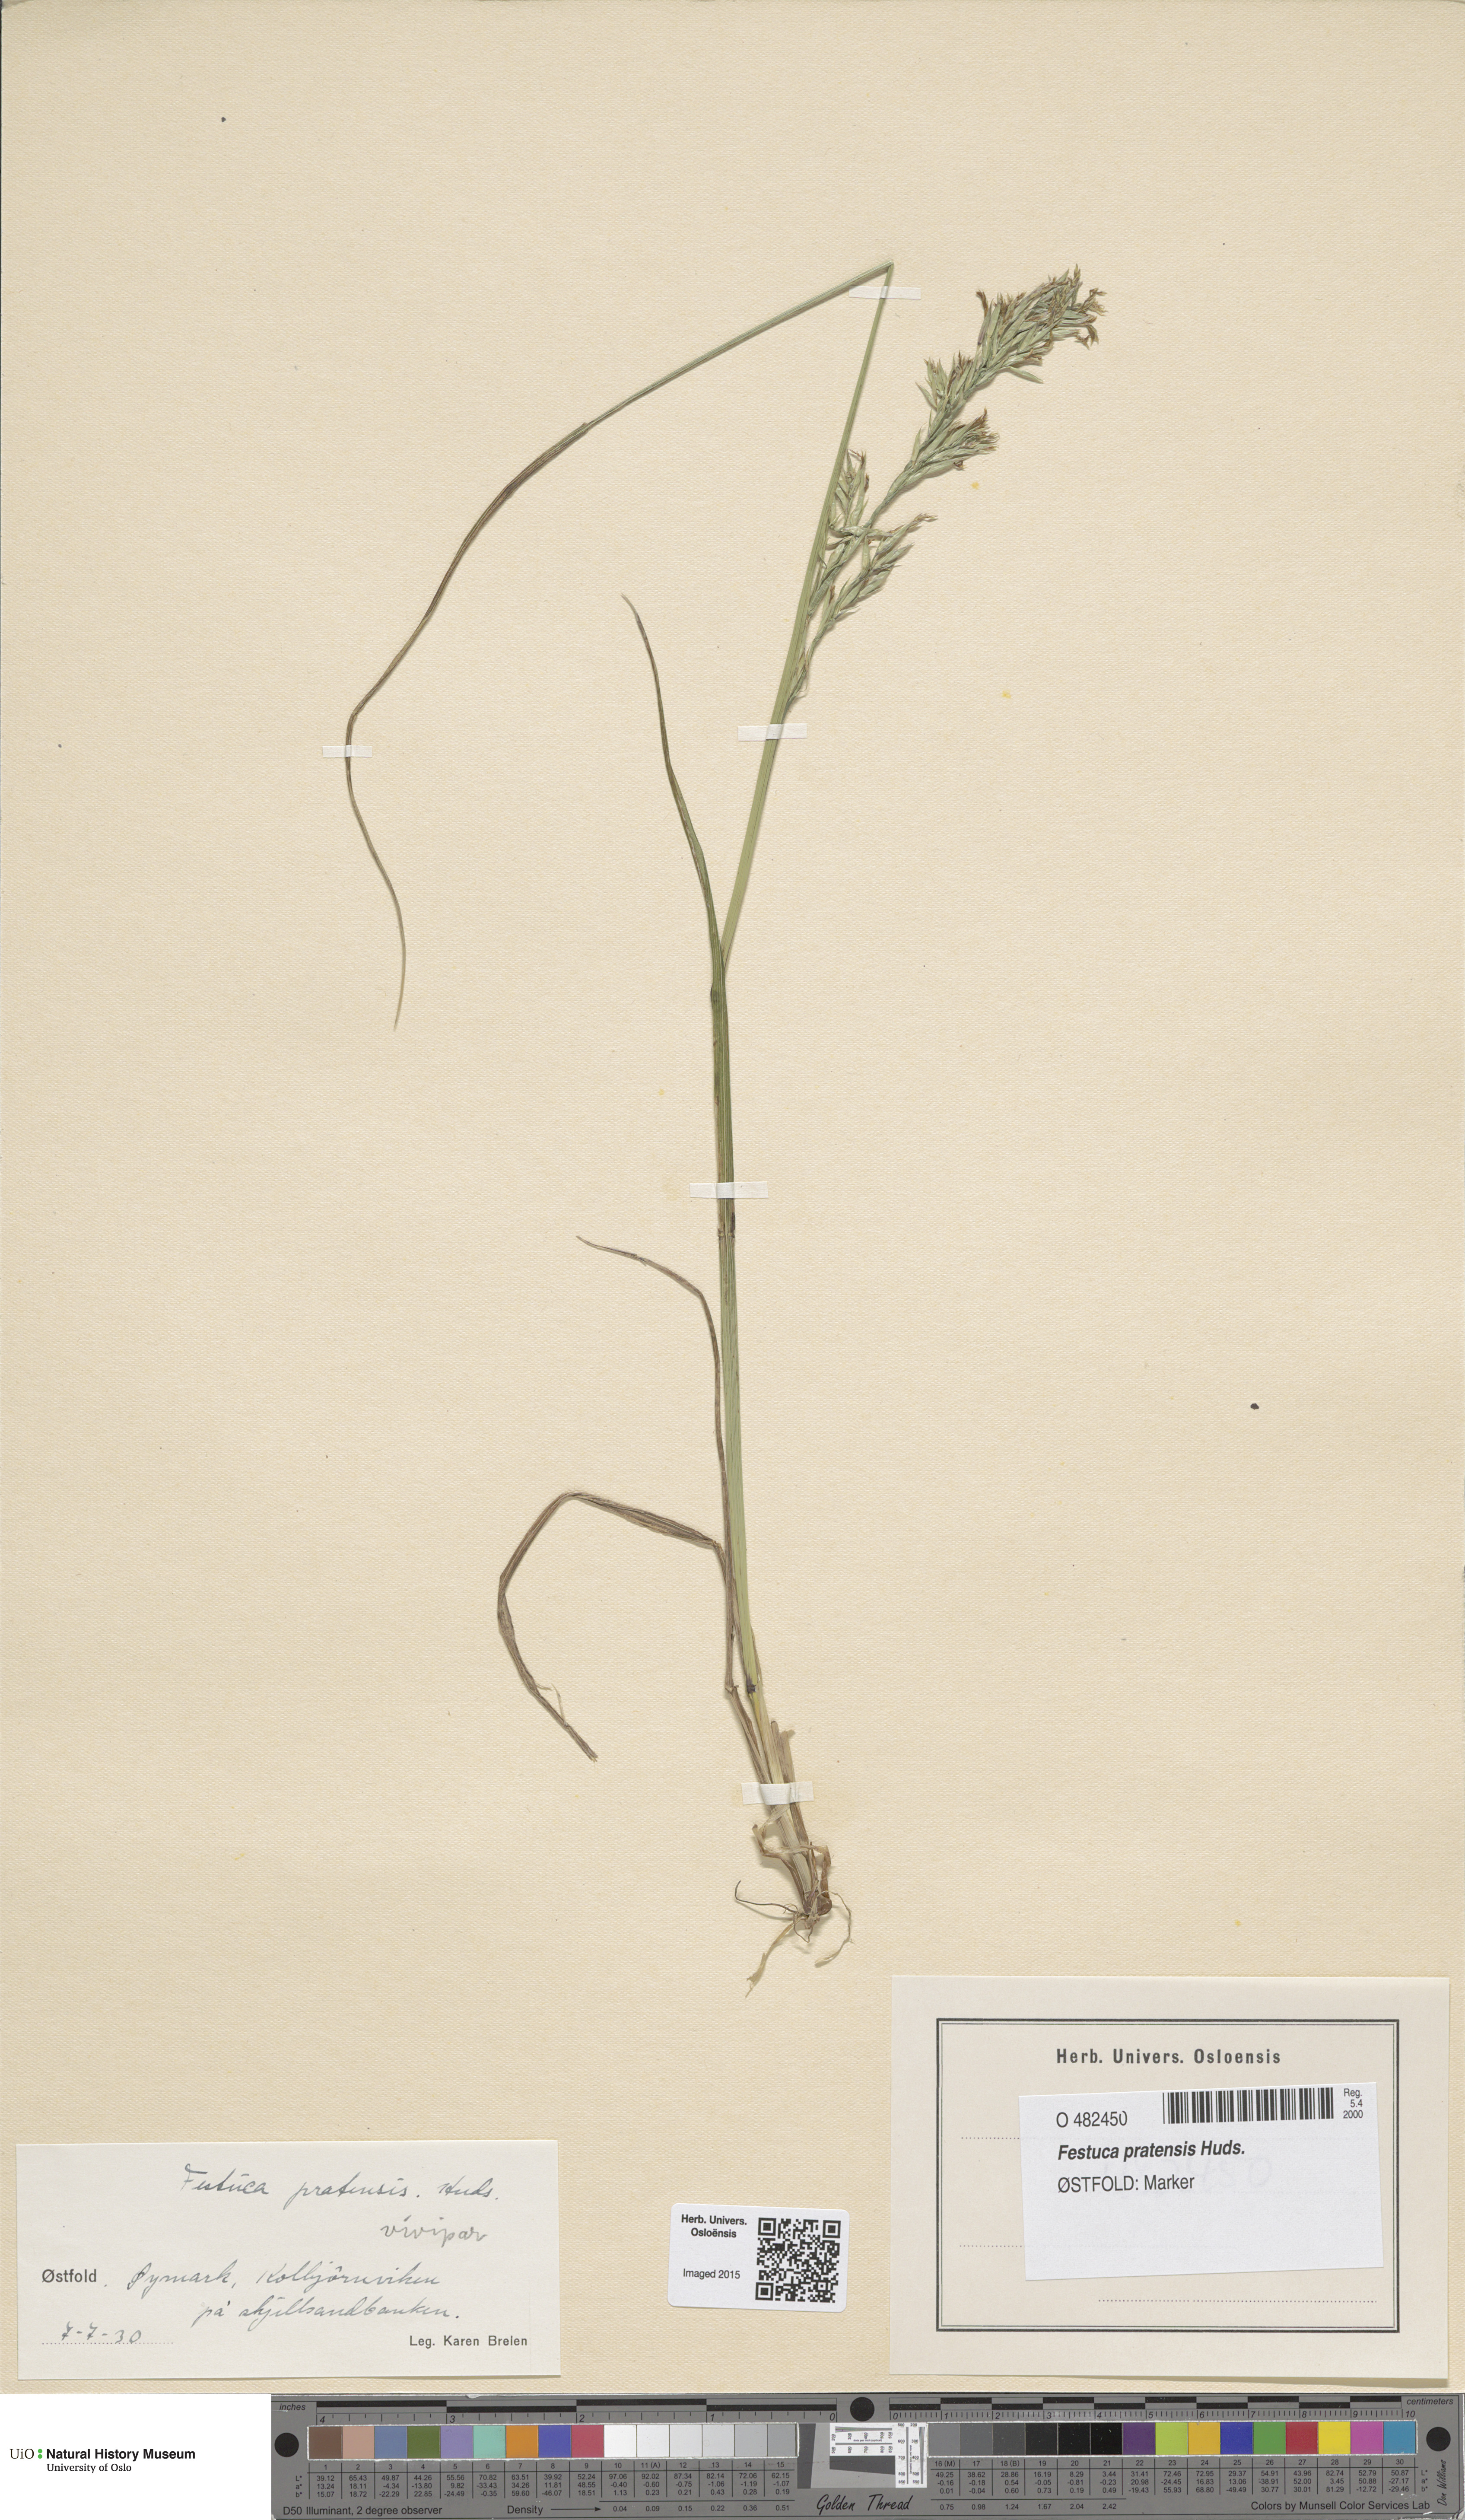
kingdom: Plantae
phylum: Tracheophyta
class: Liliopsida
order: Poales
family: Poaceae
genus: Lolium
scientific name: Lolium pratense
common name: Dover grass
